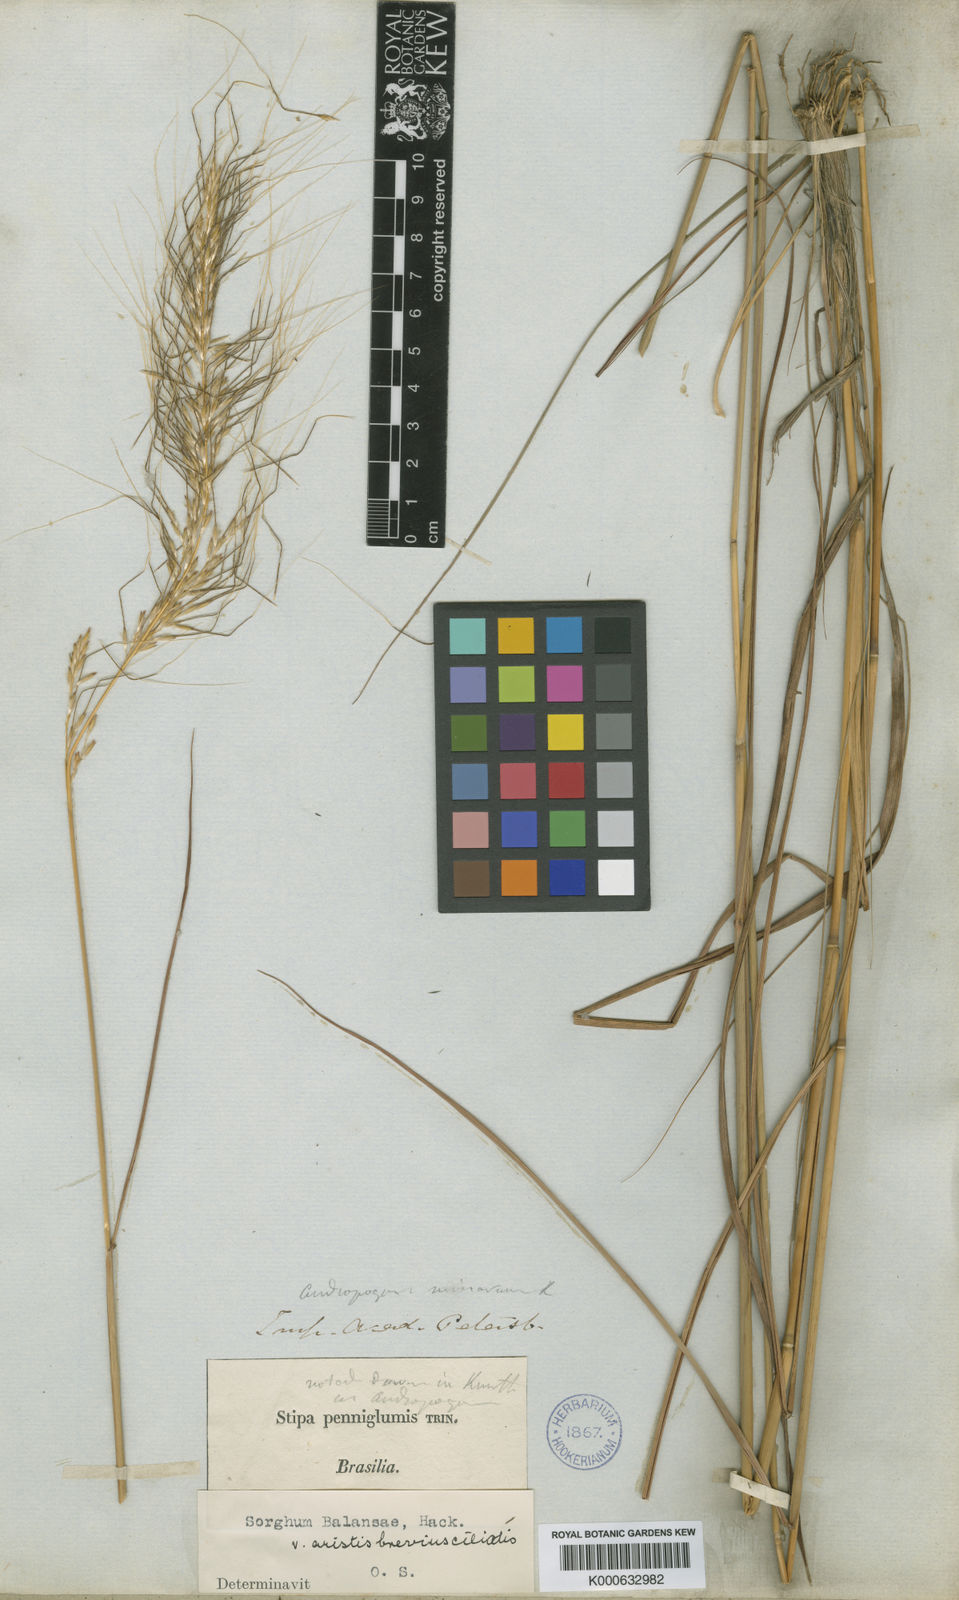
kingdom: Plantae
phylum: Tracheophyta
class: Liliopsida
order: Poales
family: Poaceae
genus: Sorghastrum
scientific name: Sorghastrum
